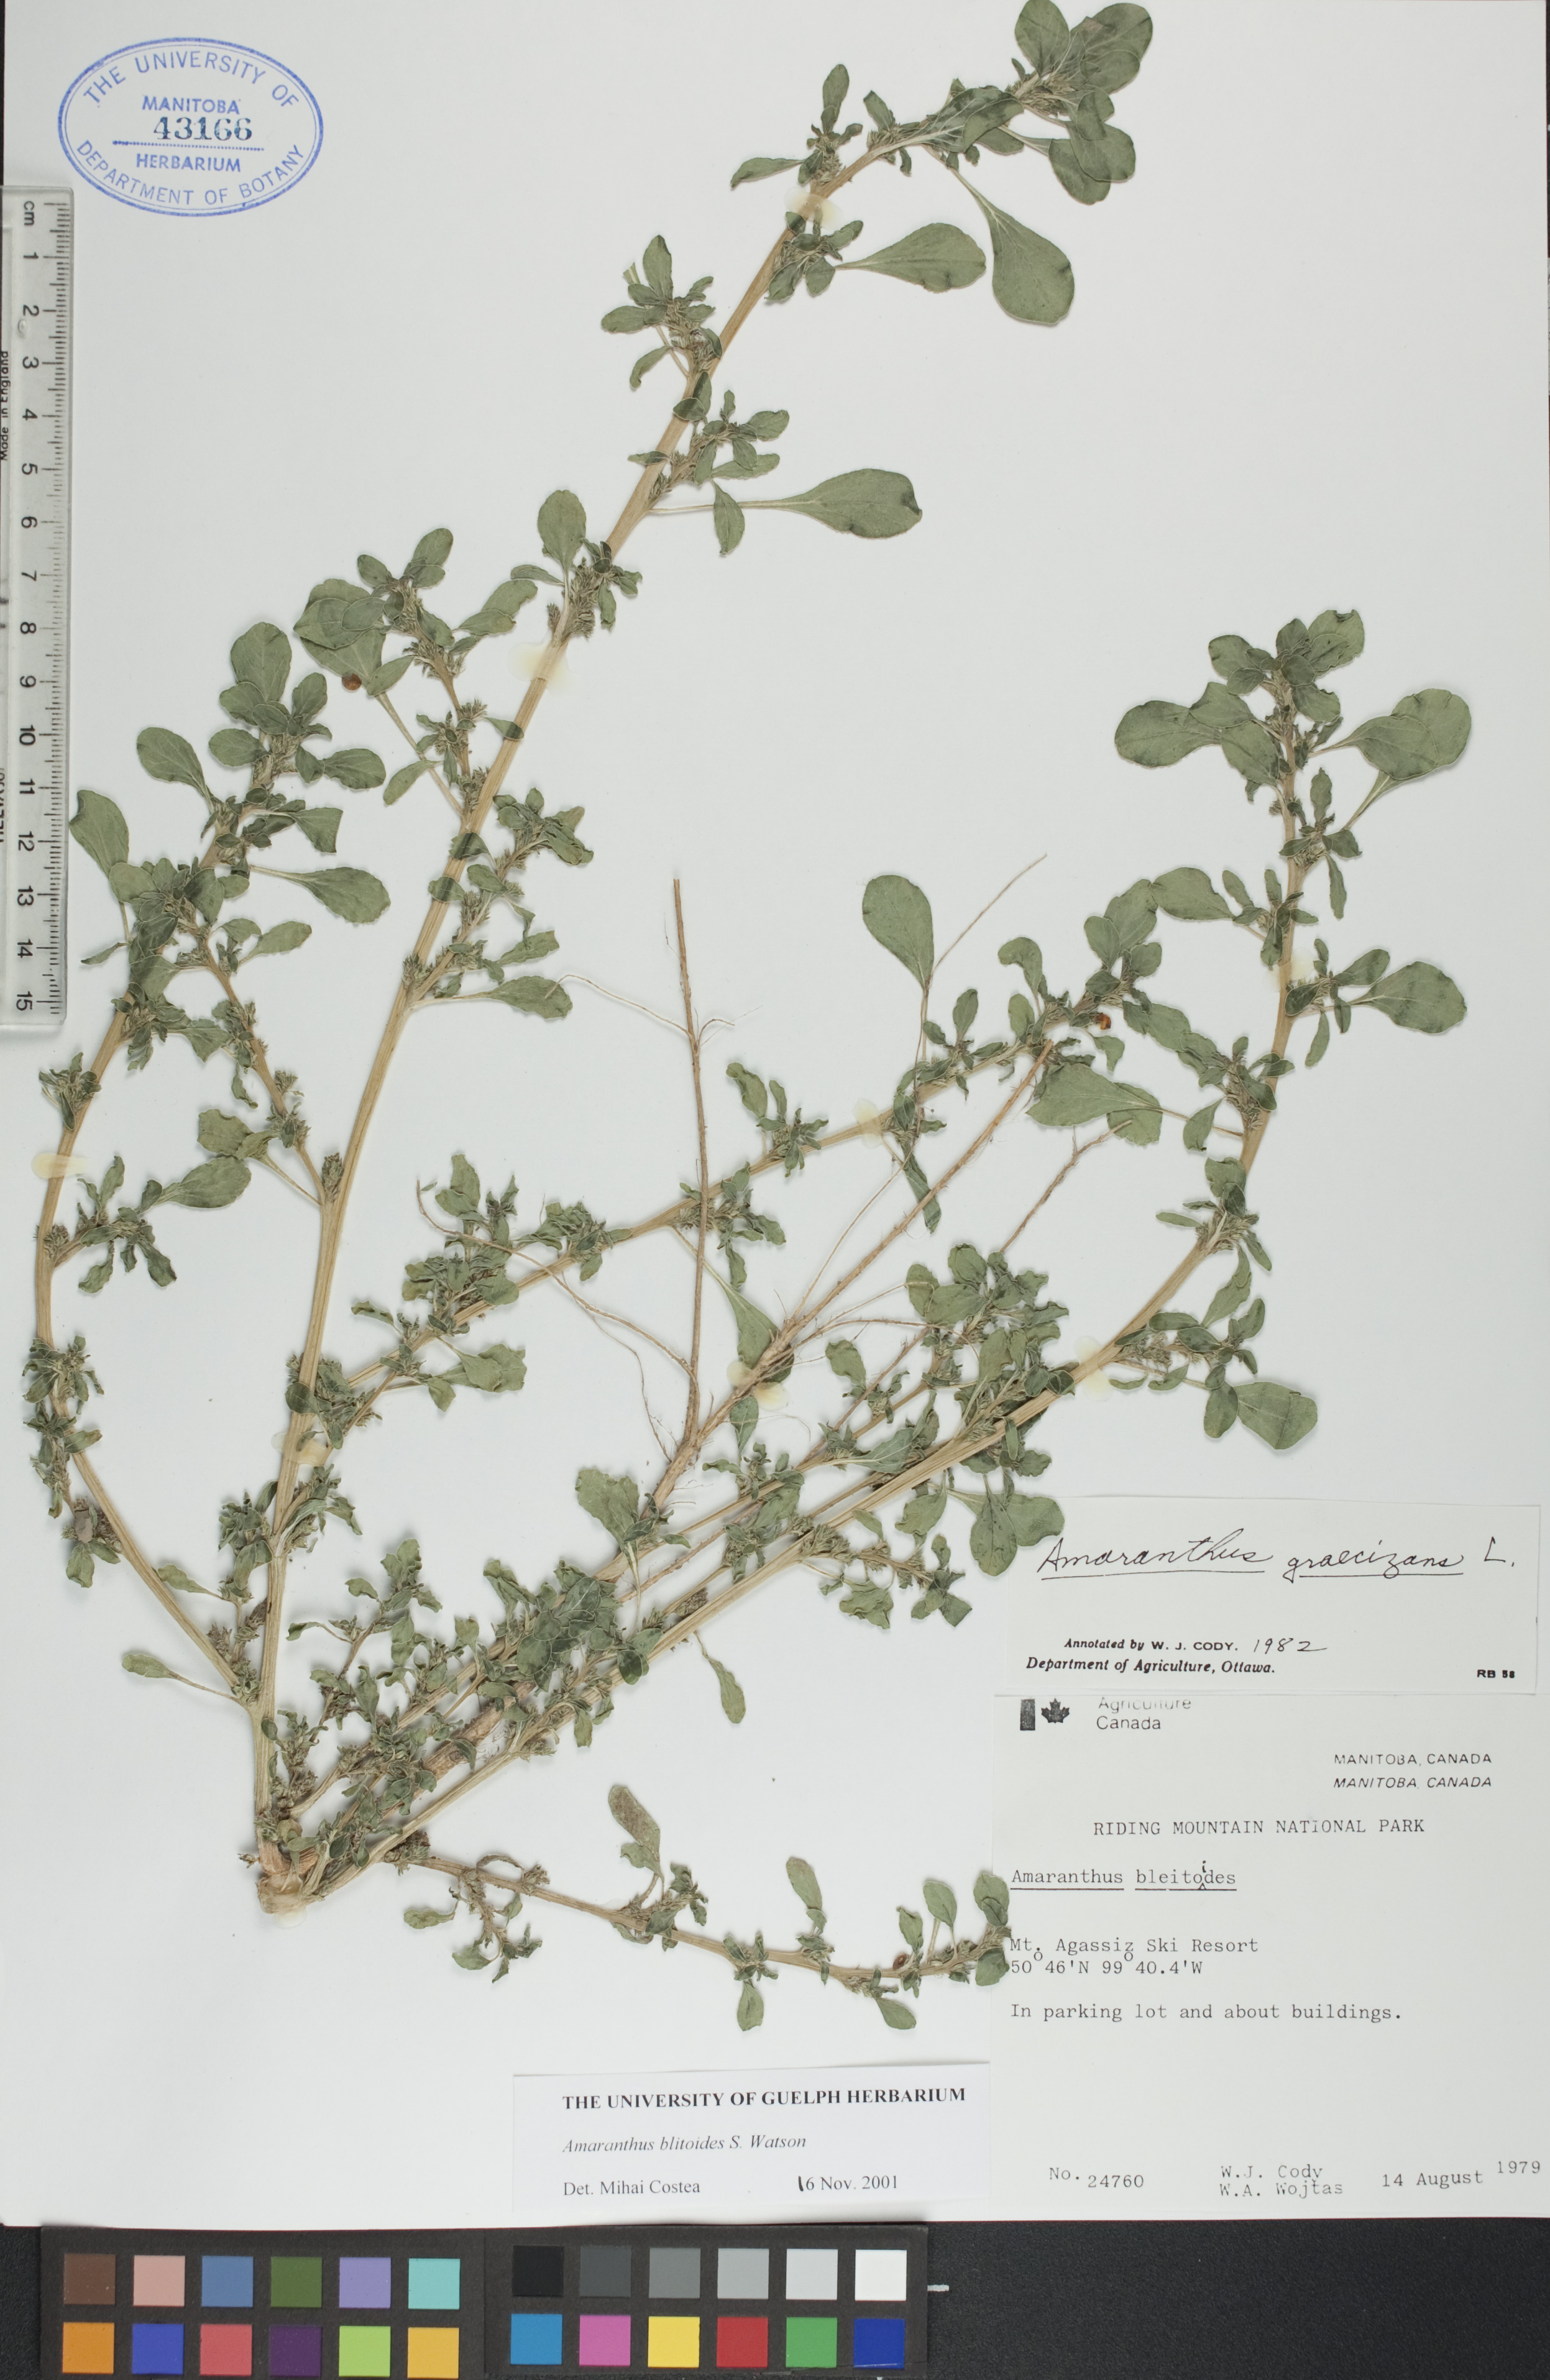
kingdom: Plantae
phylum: Tracheophyta
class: Magnoliopsida
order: Caryophyllales
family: Amaranthaceae
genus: Amaranthus
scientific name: Amaranthus blitoides
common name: Prostrate pigweed
